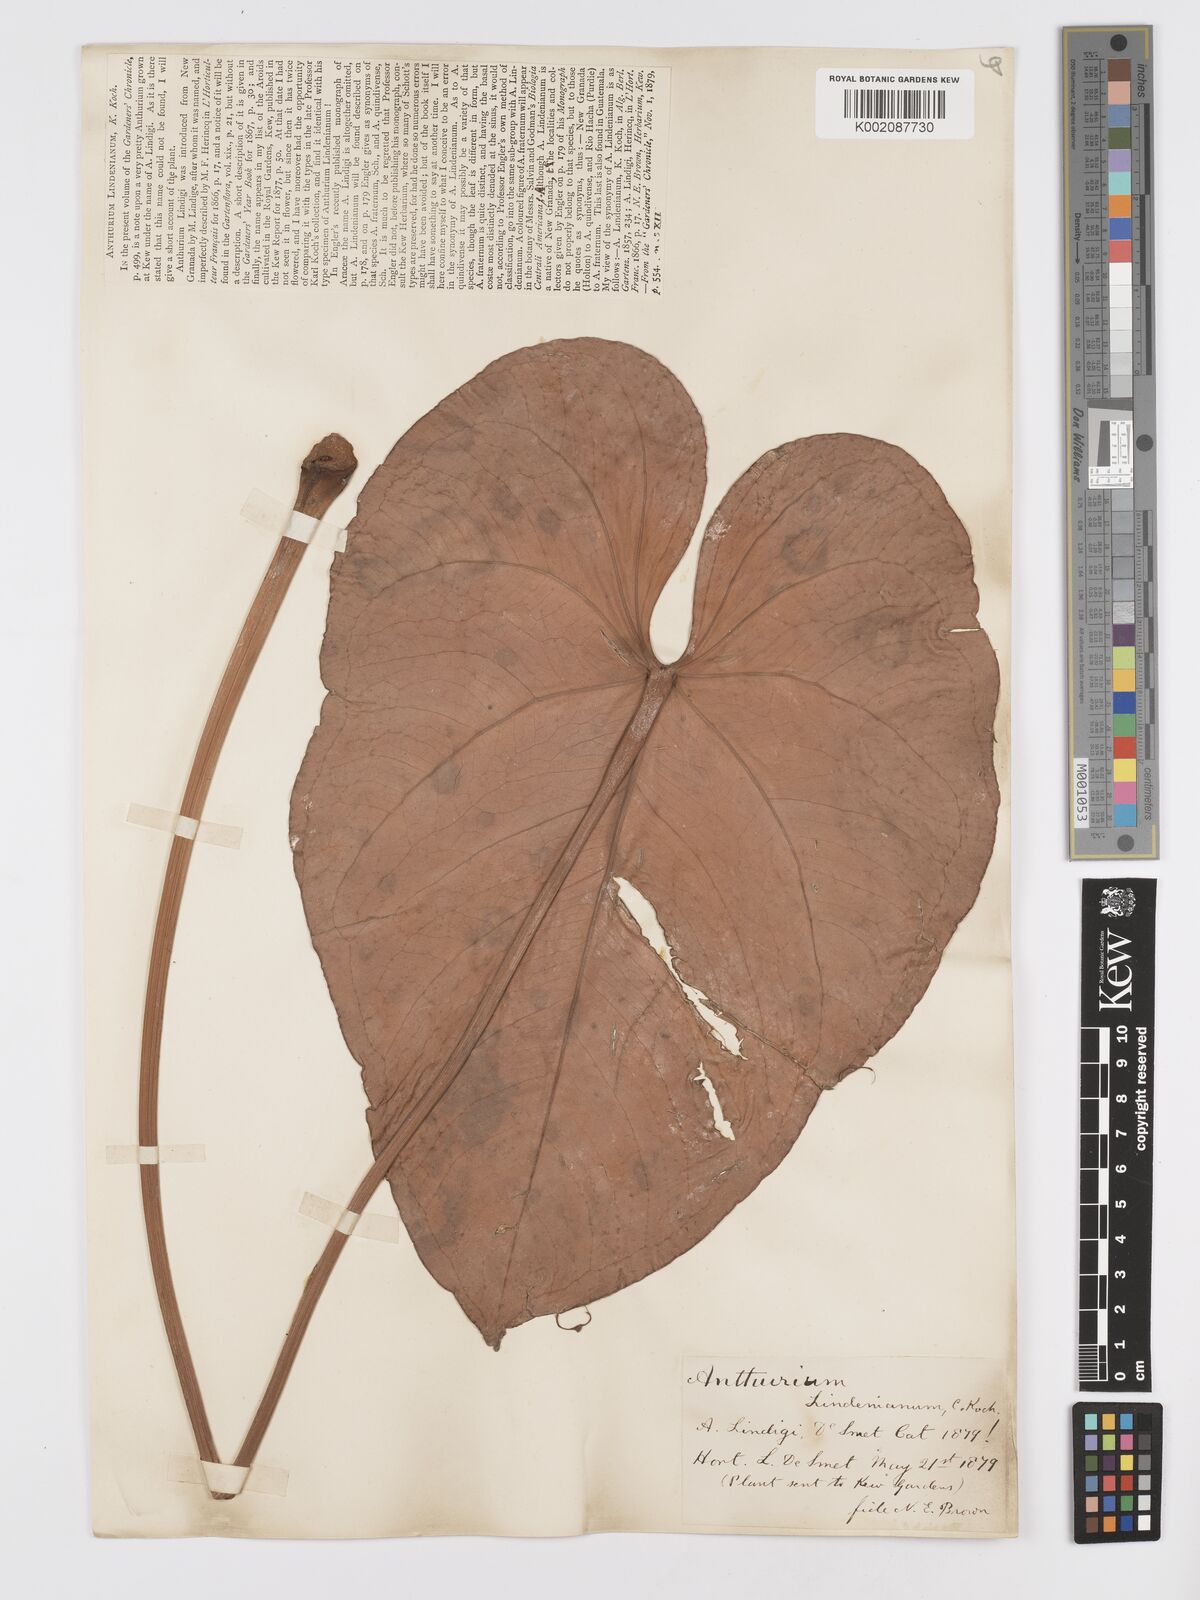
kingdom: Plantae
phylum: Tracheophyta
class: Liliopsida
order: Alismatales
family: Araceae
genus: Anthurium
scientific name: Anthurium lindenianum
